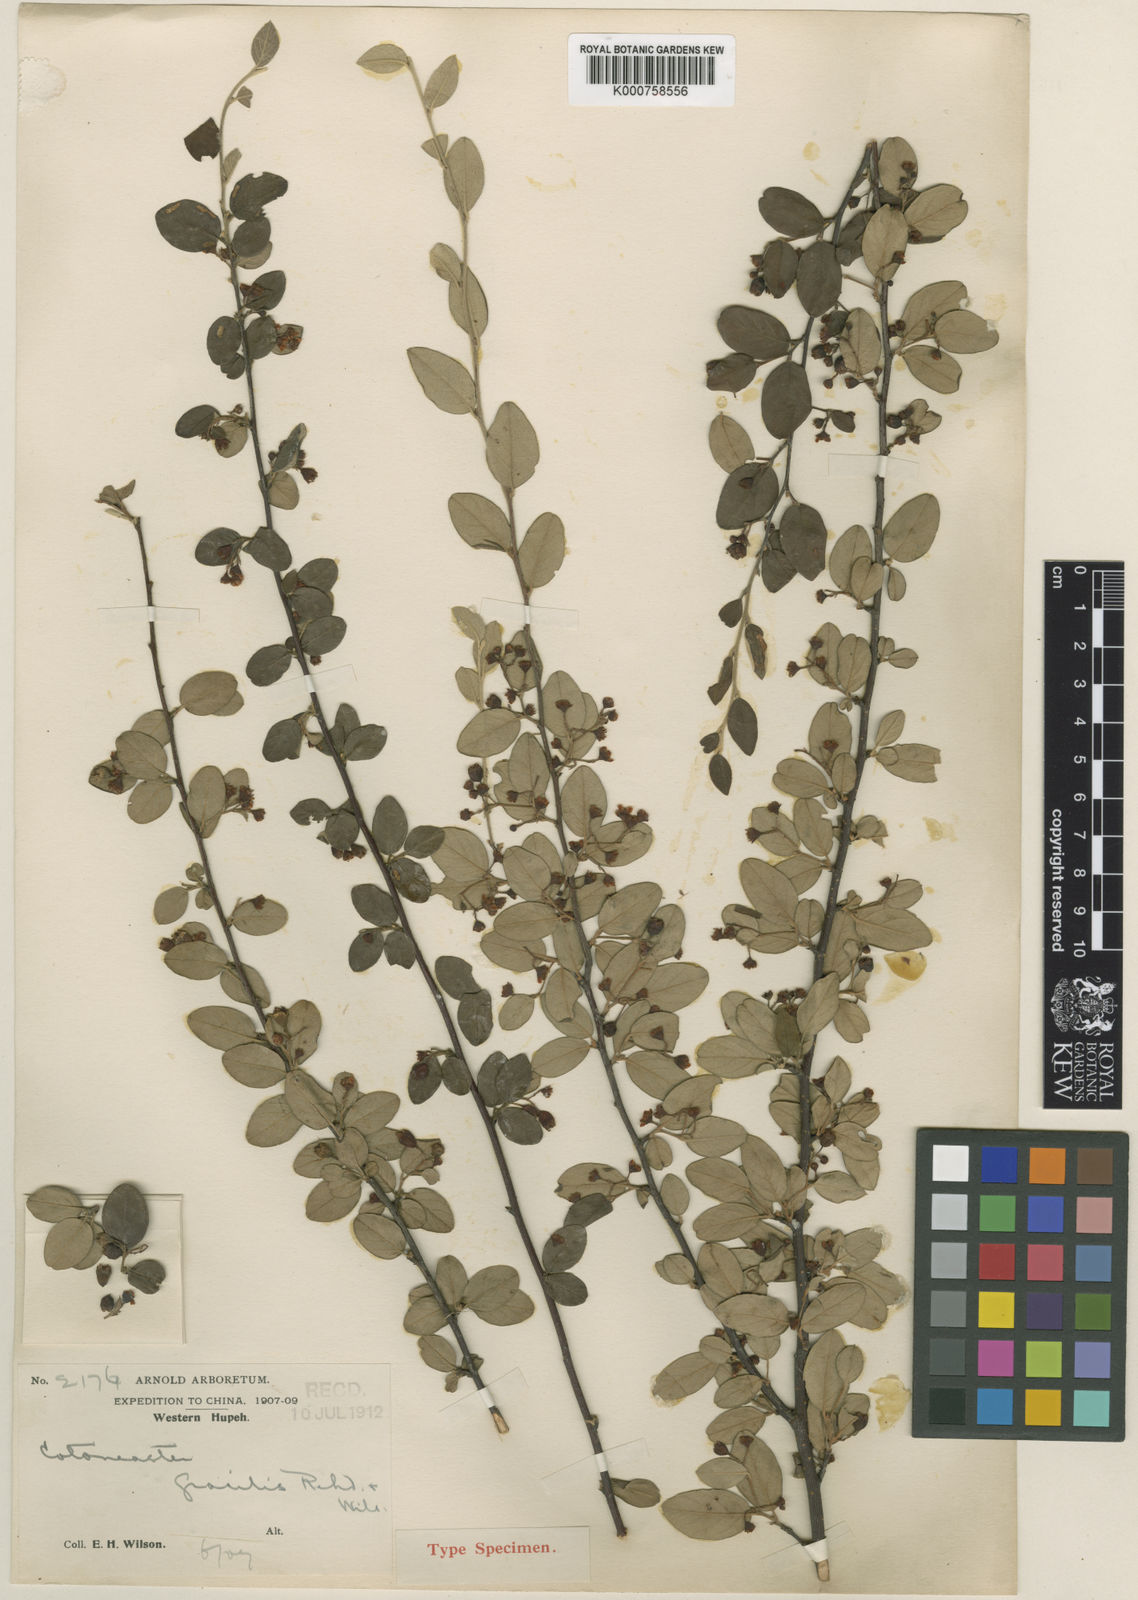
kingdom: Plantae
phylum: Tracheophyta
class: Magnoliopsida
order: Rosales
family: Rosaceae
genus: Cotoneaster
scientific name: Cotoneaster gracilis
